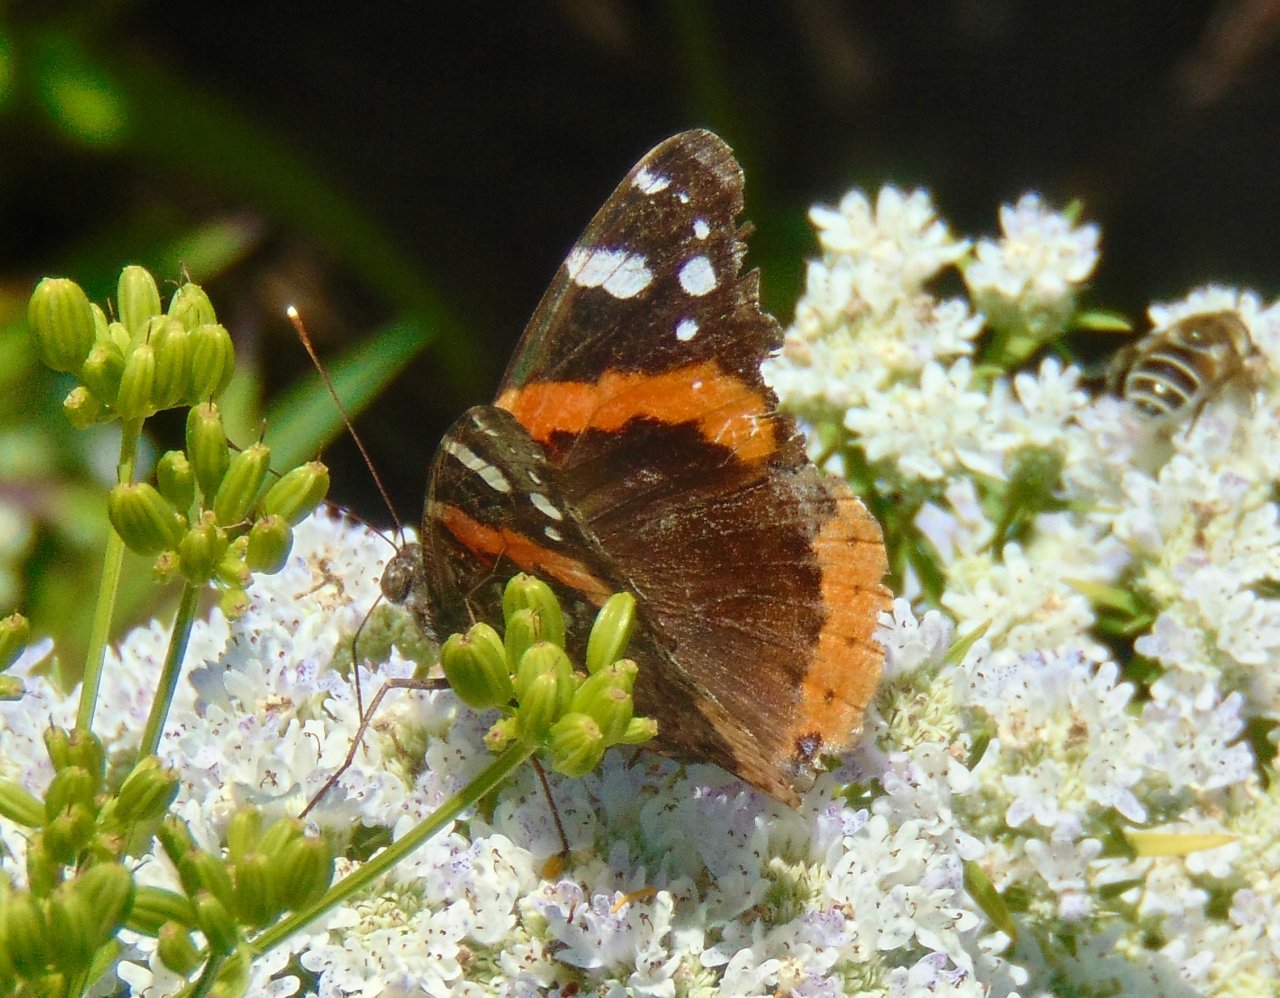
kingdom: Animalia
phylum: Arthropoda
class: Insecta
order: Lepidoptera
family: Nymphalidae
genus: Vanessa
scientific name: Vanessa atalanta
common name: Red Admiral
